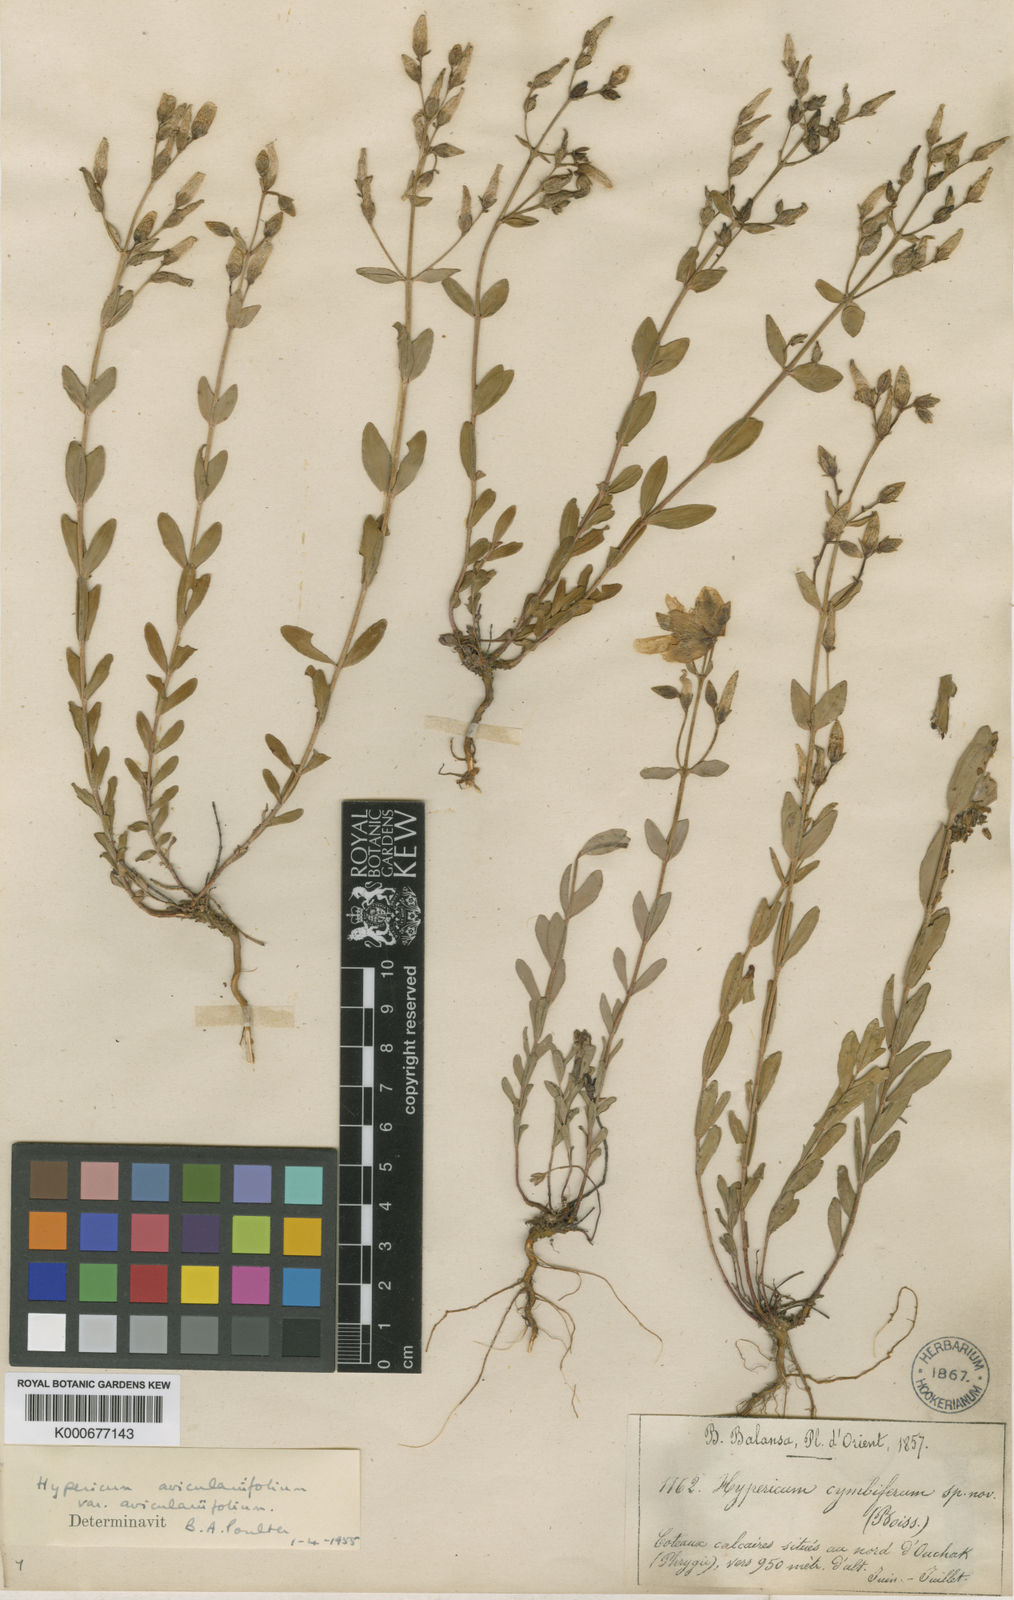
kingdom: Plantae
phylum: Tracheophyta
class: Magnoliopsida
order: Malpighiales
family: Hypericaceae
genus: Hypericum
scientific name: Hypericum aviculariifolium
